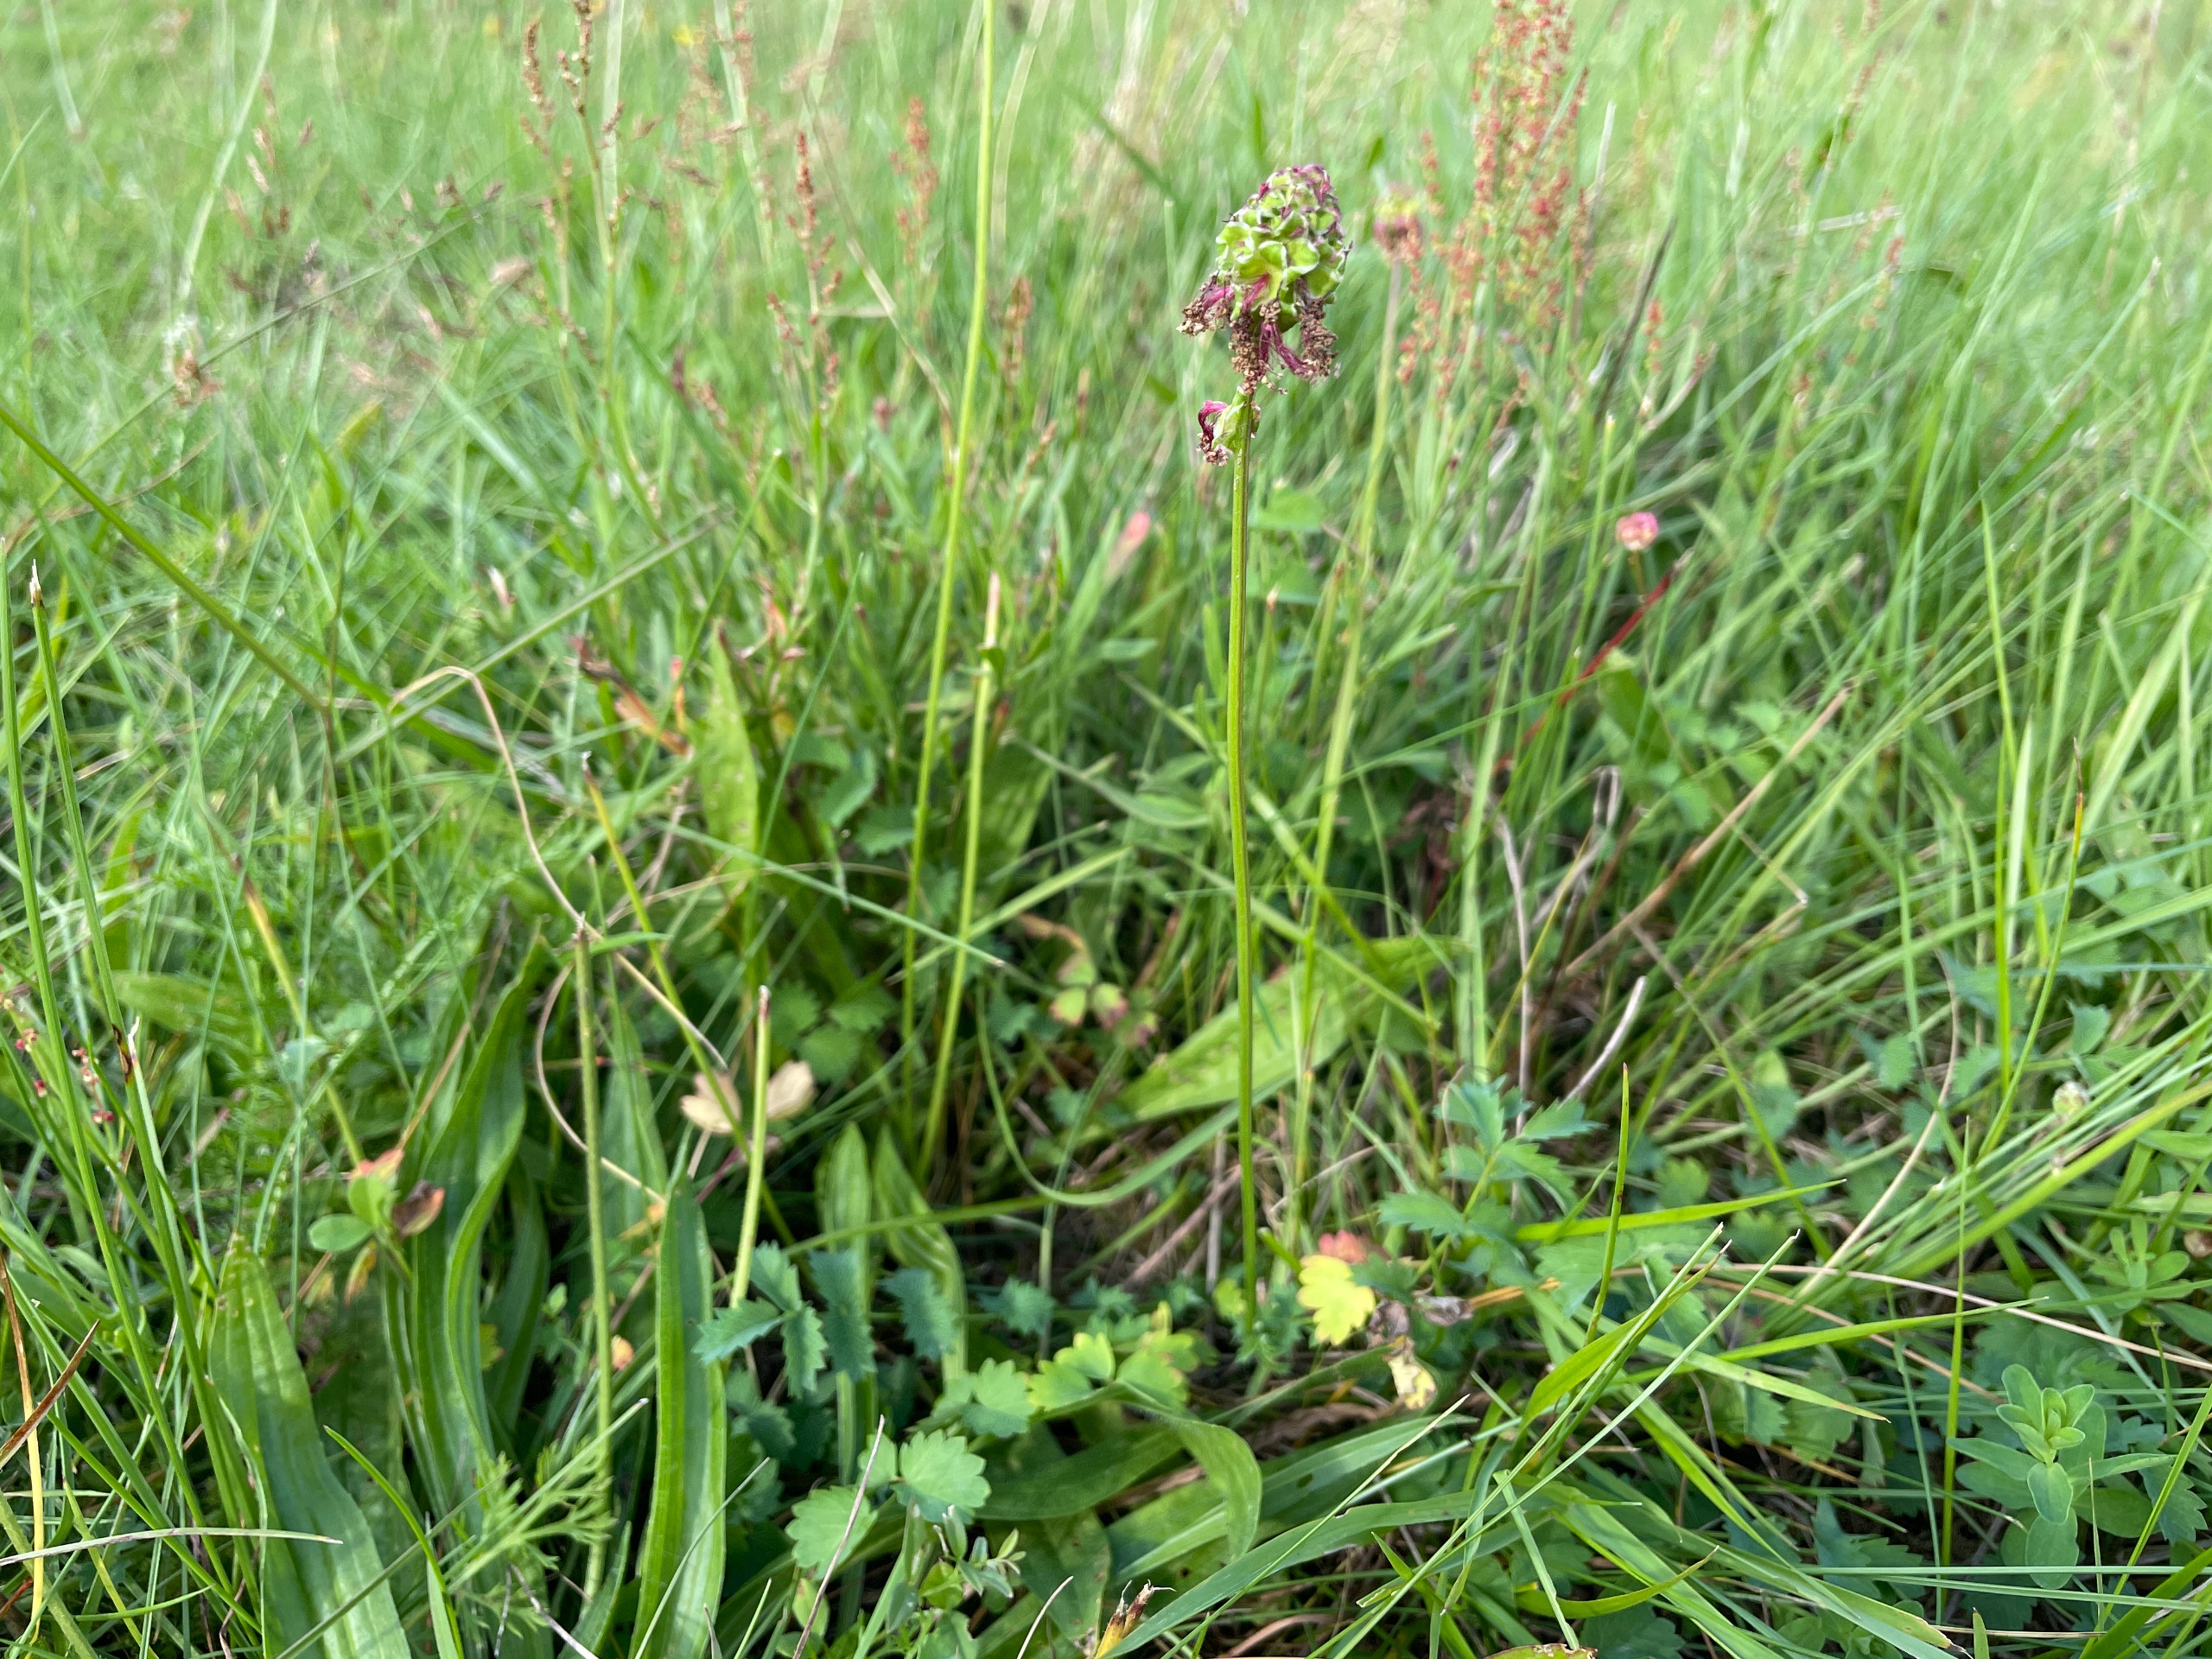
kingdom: Plantae
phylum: Tracheophyta
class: Magnoliopsida
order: Rosales
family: Rosaceae
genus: Poterium
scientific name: Poterium sanguisorba
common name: Vingefrøet bibernelle
